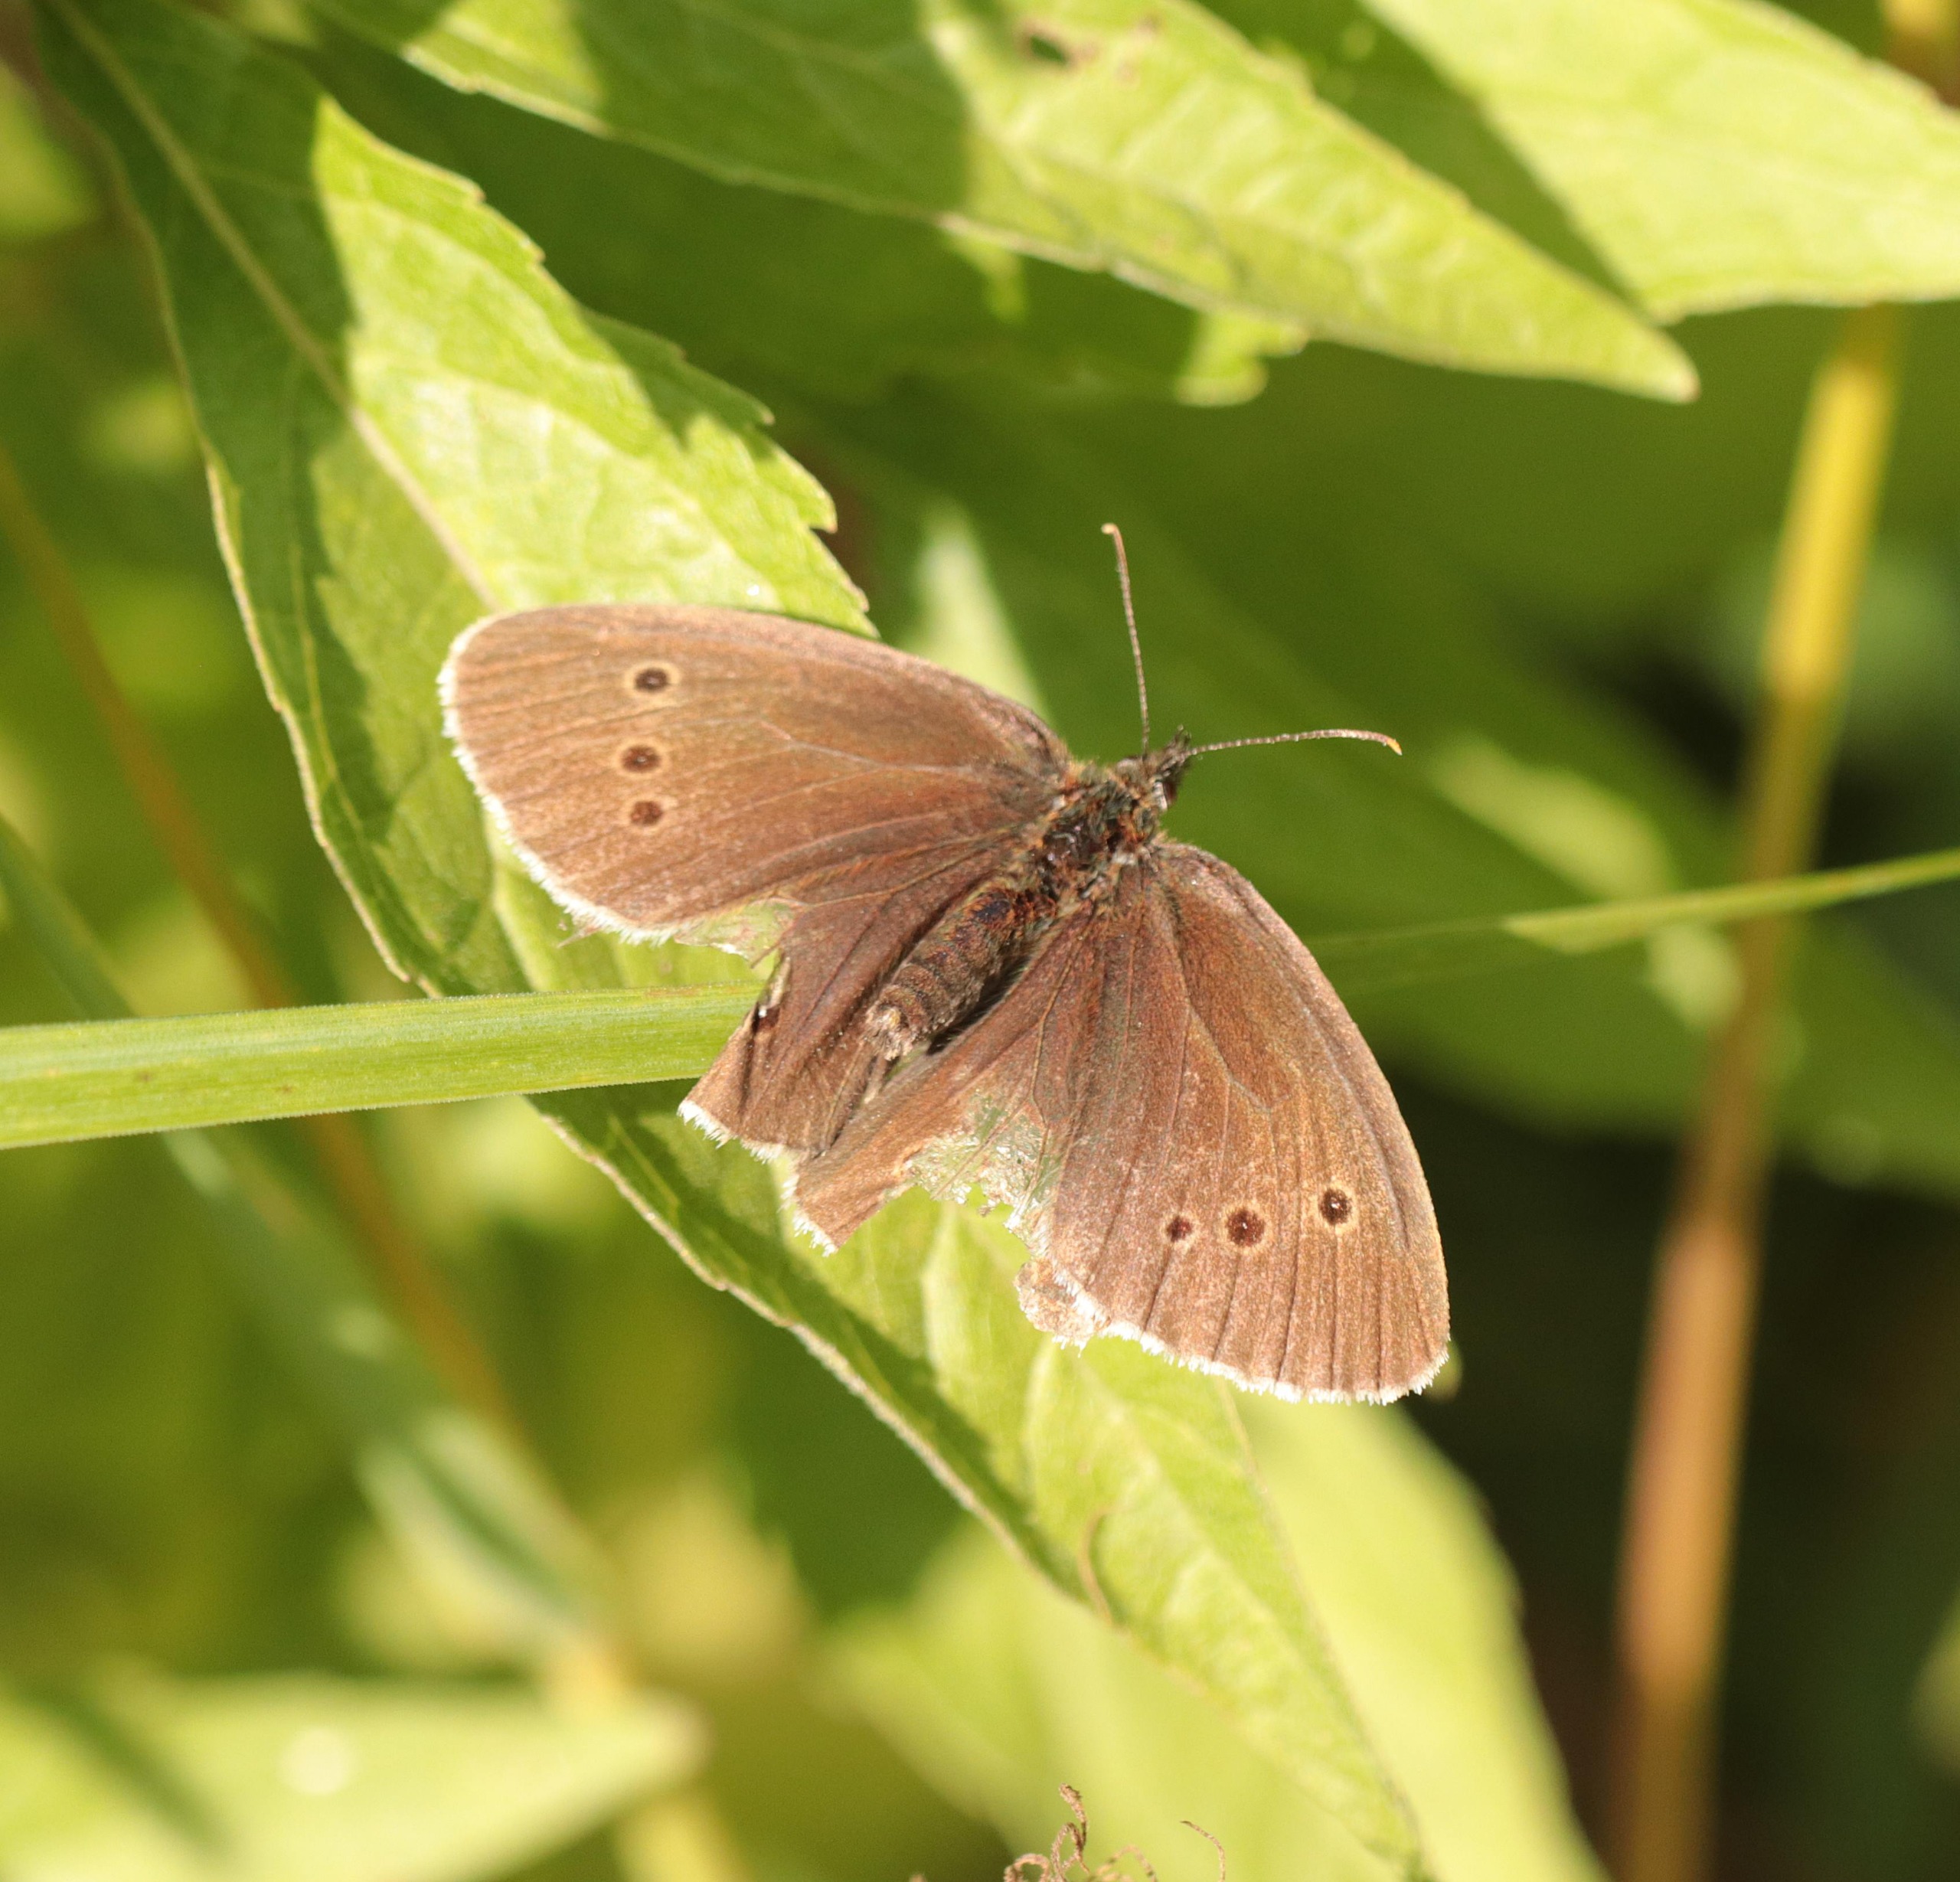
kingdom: Animalia
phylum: Arthropoda
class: Insecta
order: Lepidoptera
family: Nymphalidae
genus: Aphantopus
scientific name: Aphantopus hyperantus
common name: Engrandøje
